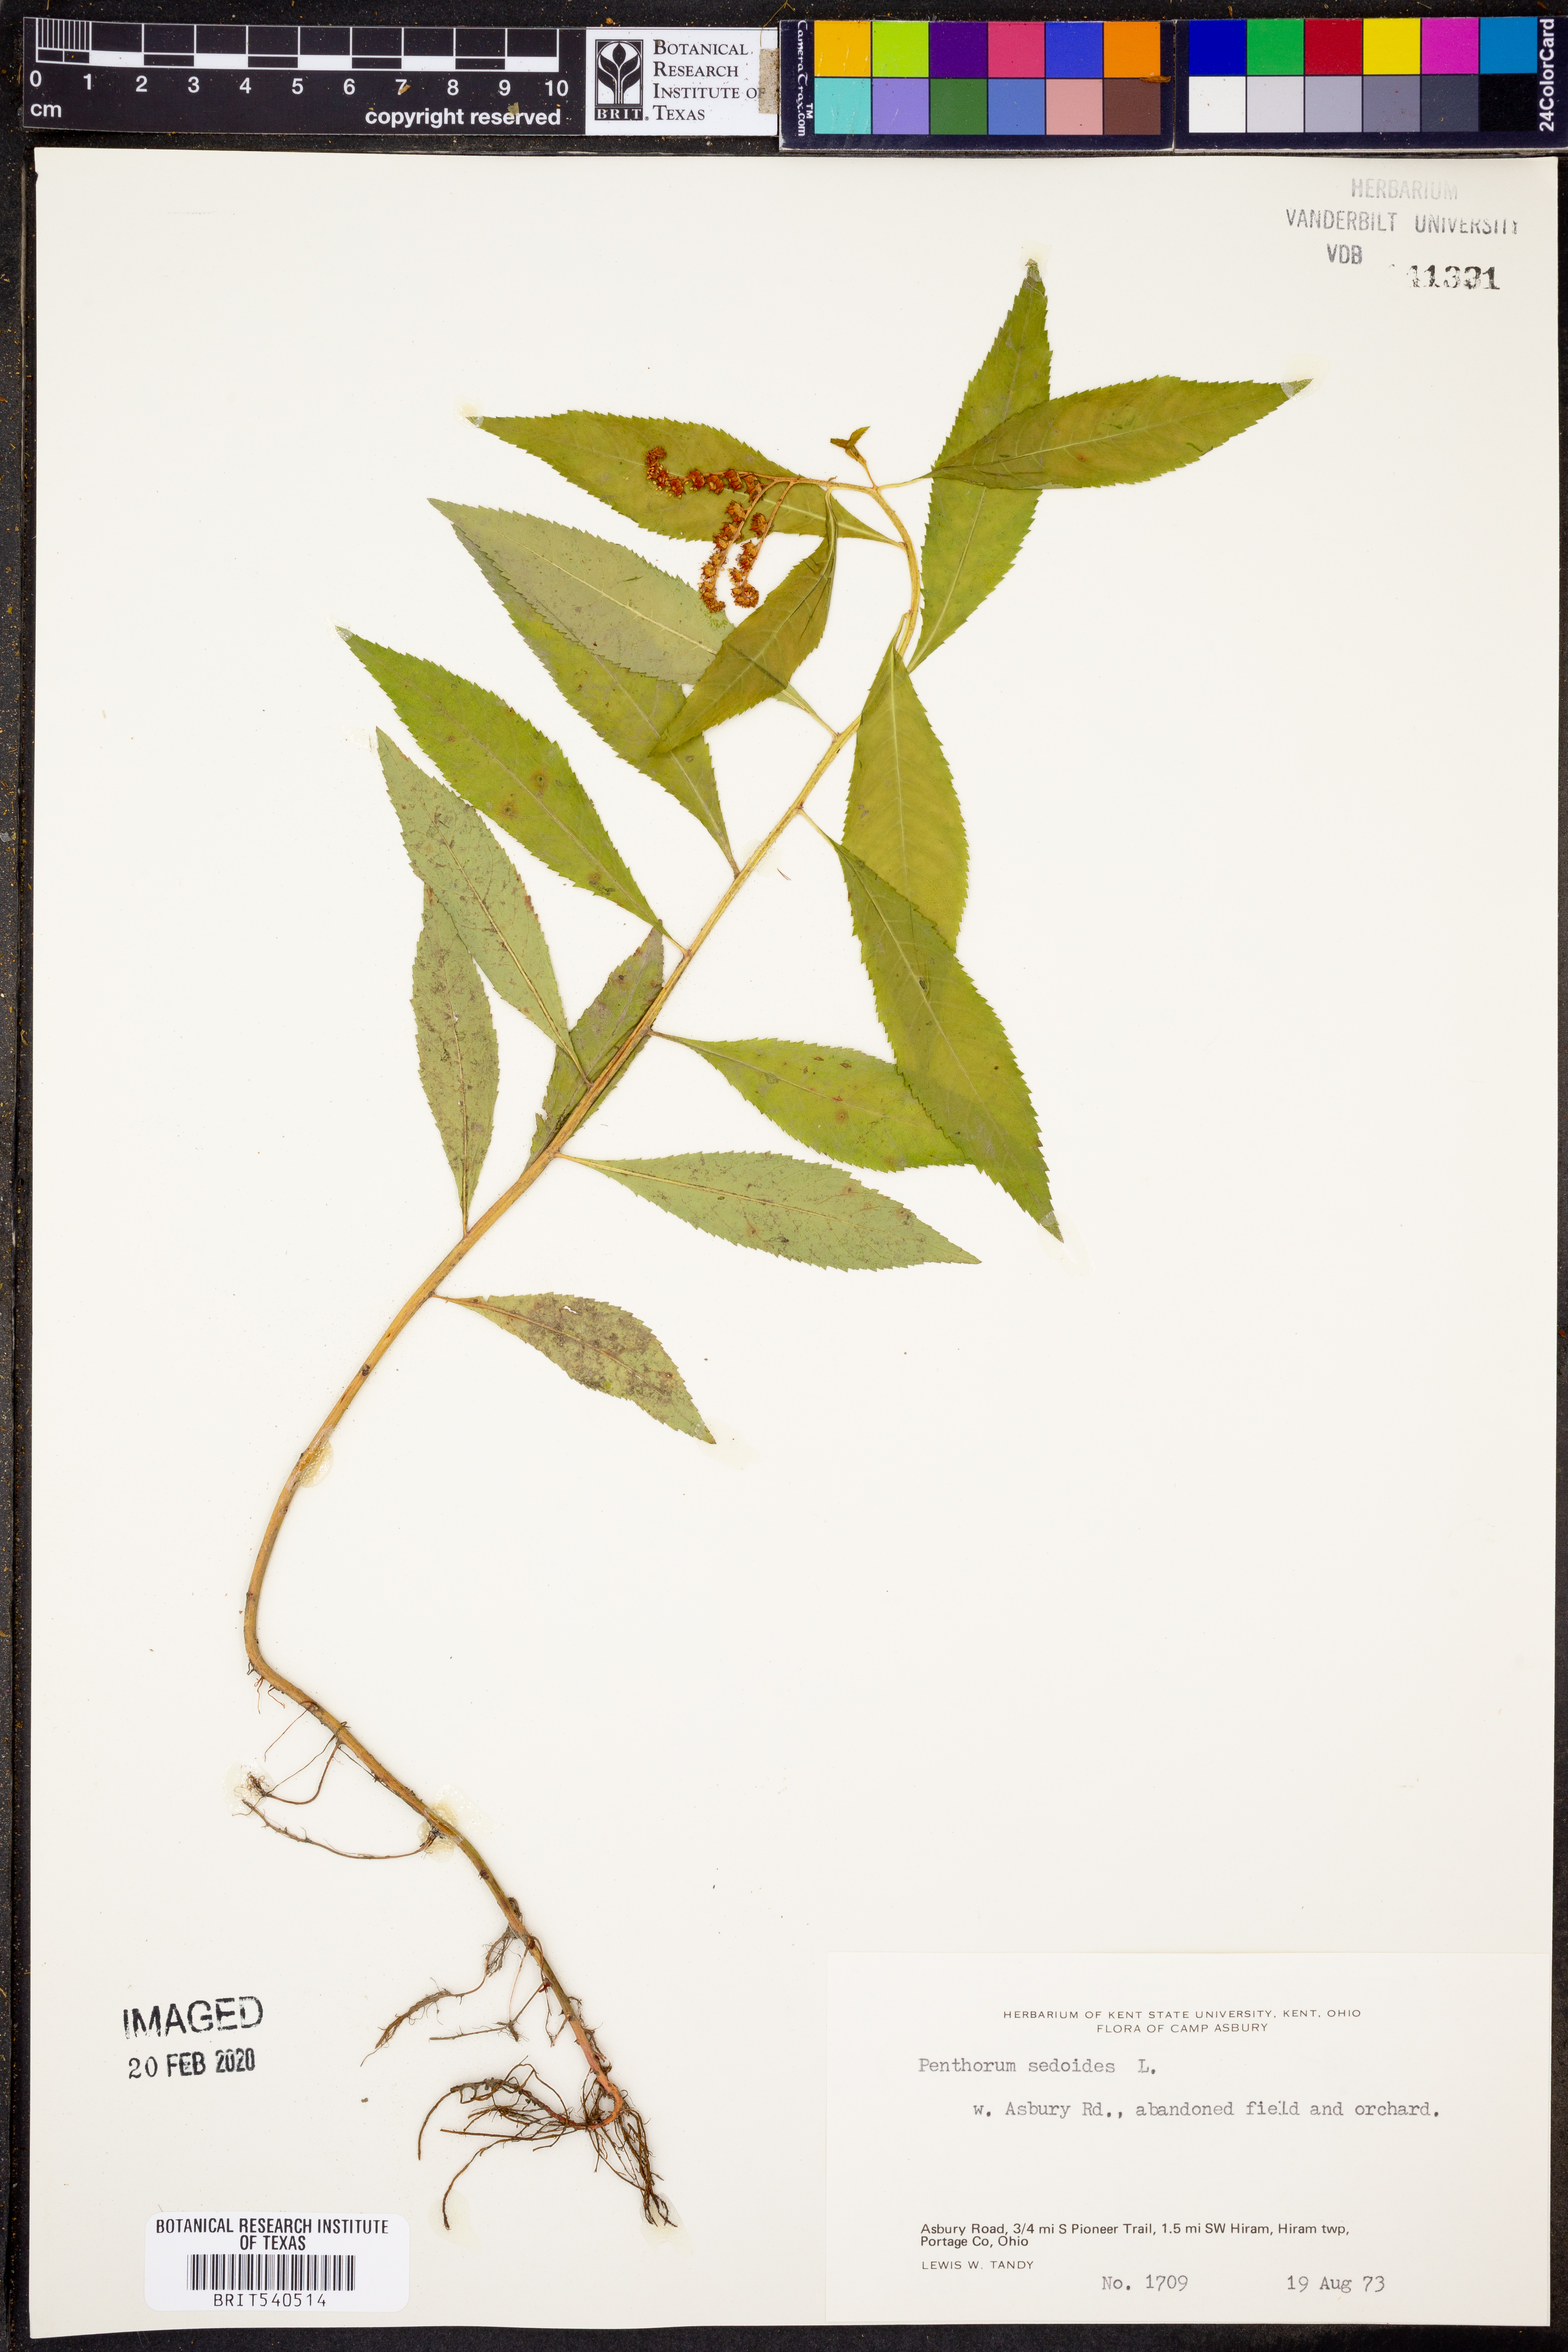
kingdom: Plantae
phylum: Tracheophyta
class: Magnoliopsida
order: Saxifragales
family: Penthoraceae
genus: Penthorum
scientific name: Penthorum sedoides
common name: Ditch stonecrop
